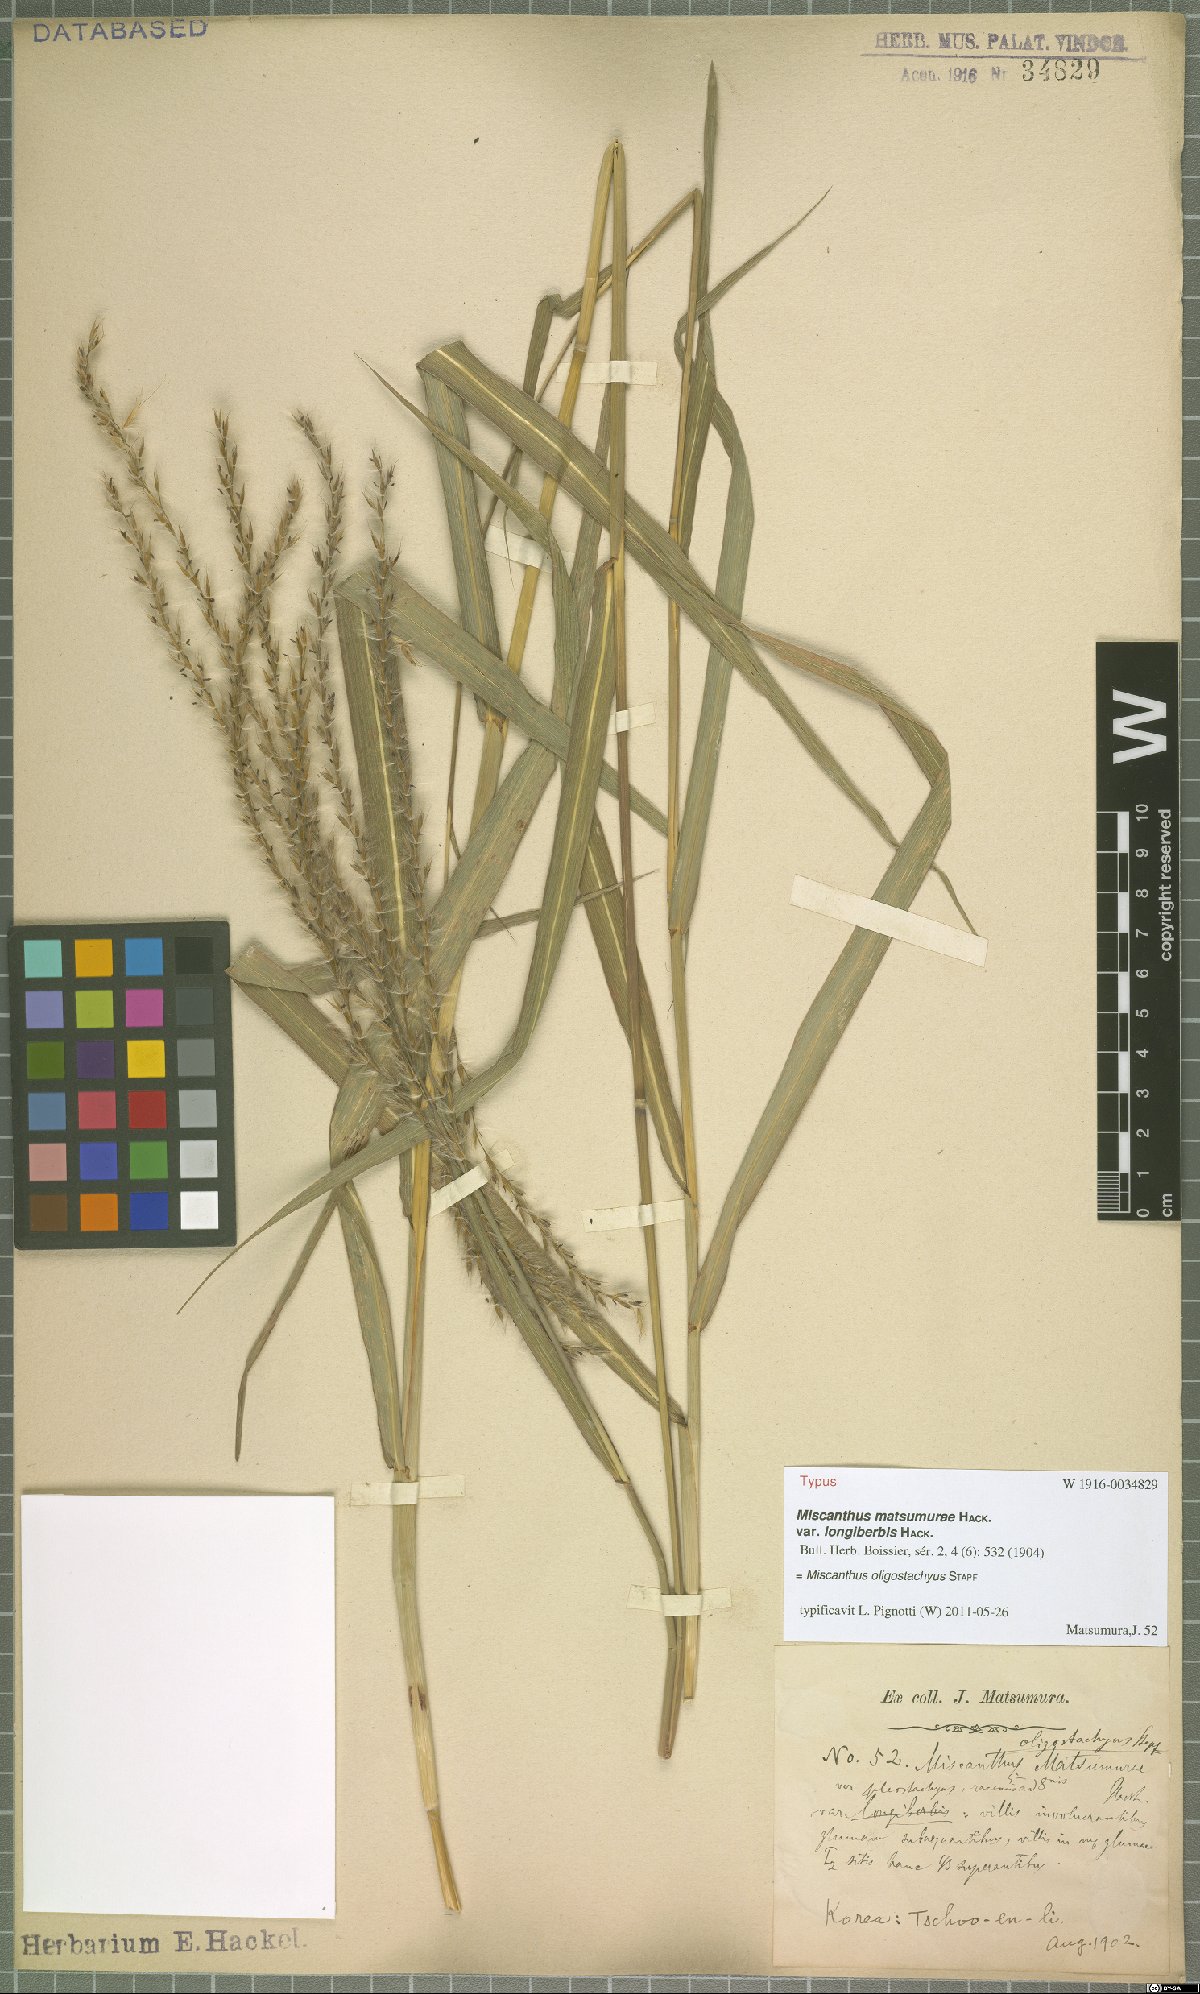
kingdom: Plantae
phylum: Tracheophyta
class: Liliopsida
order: Poales
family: Poaceae
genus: Miscanthus
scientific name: Miscanthus oligostachyus
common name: Small japanese silver grass
